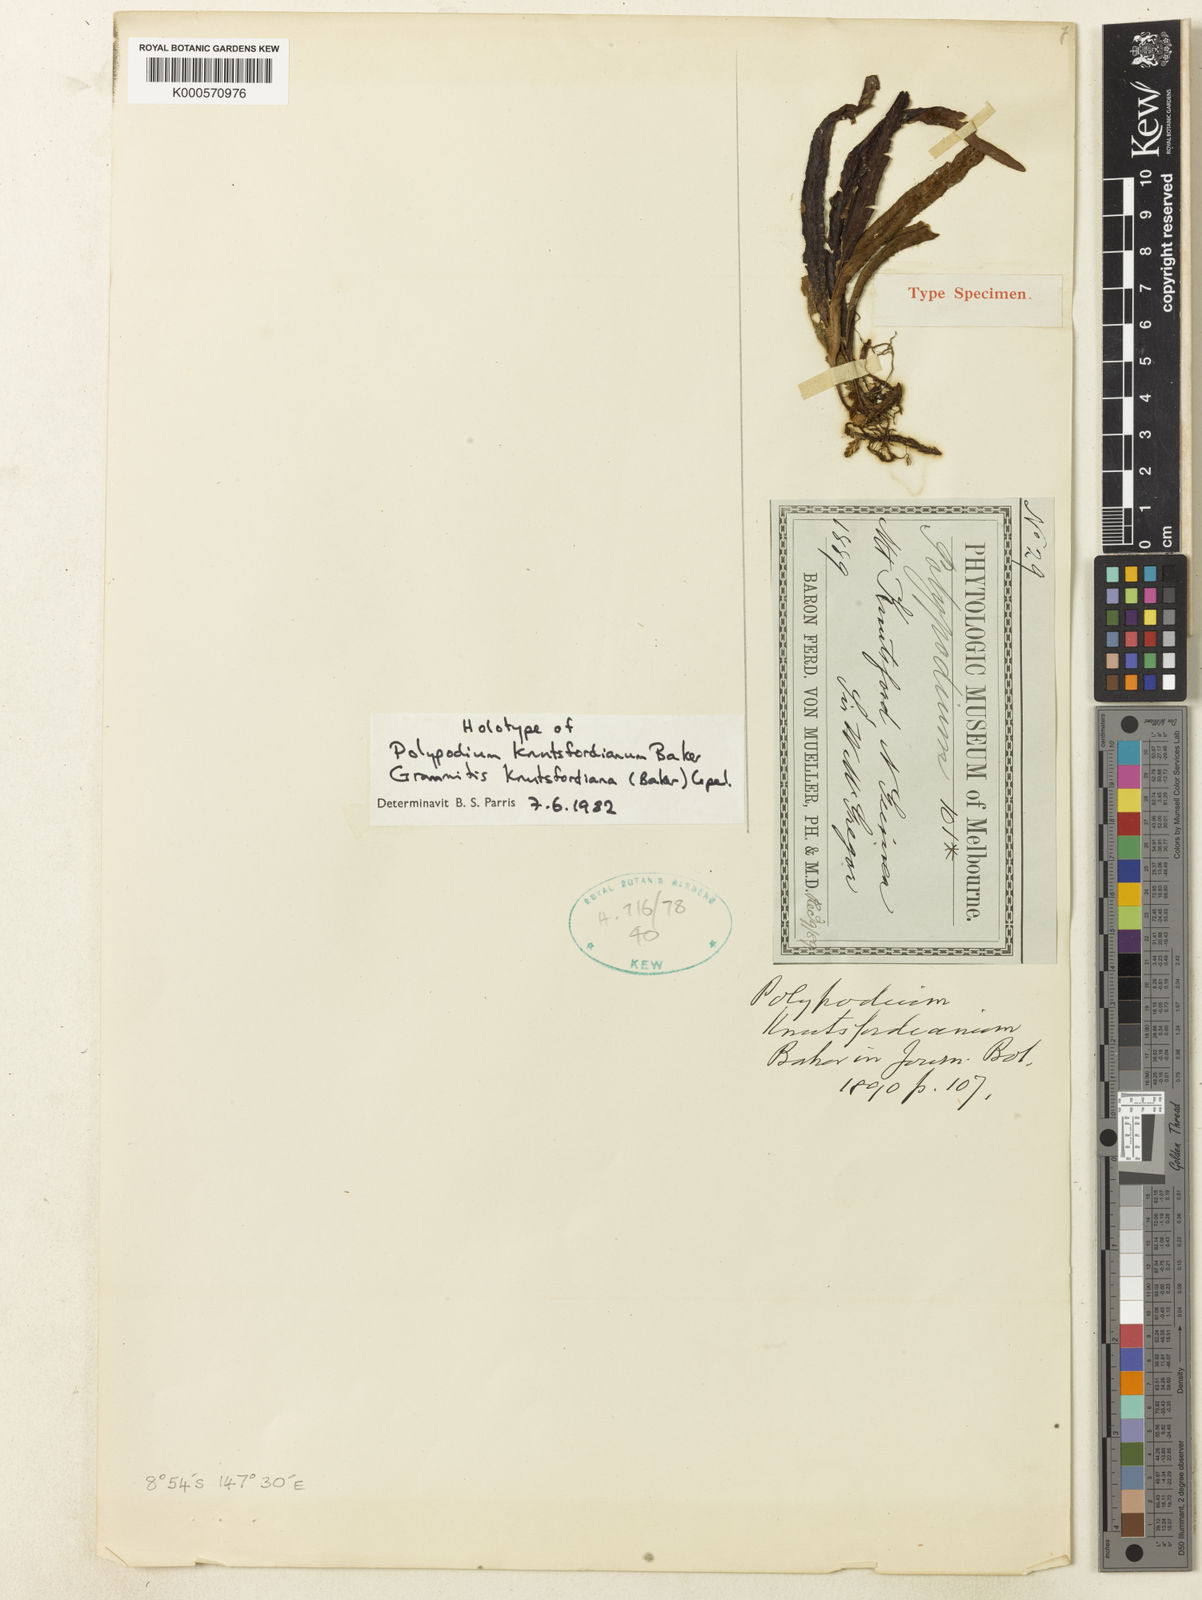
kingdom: Plantae
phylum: Tracheophyta
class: Polypodiopsida
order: Polypodiales
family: Polypodiaceae
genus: Oreogrammitis
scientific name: Oreogrammitis knutsfordiana
